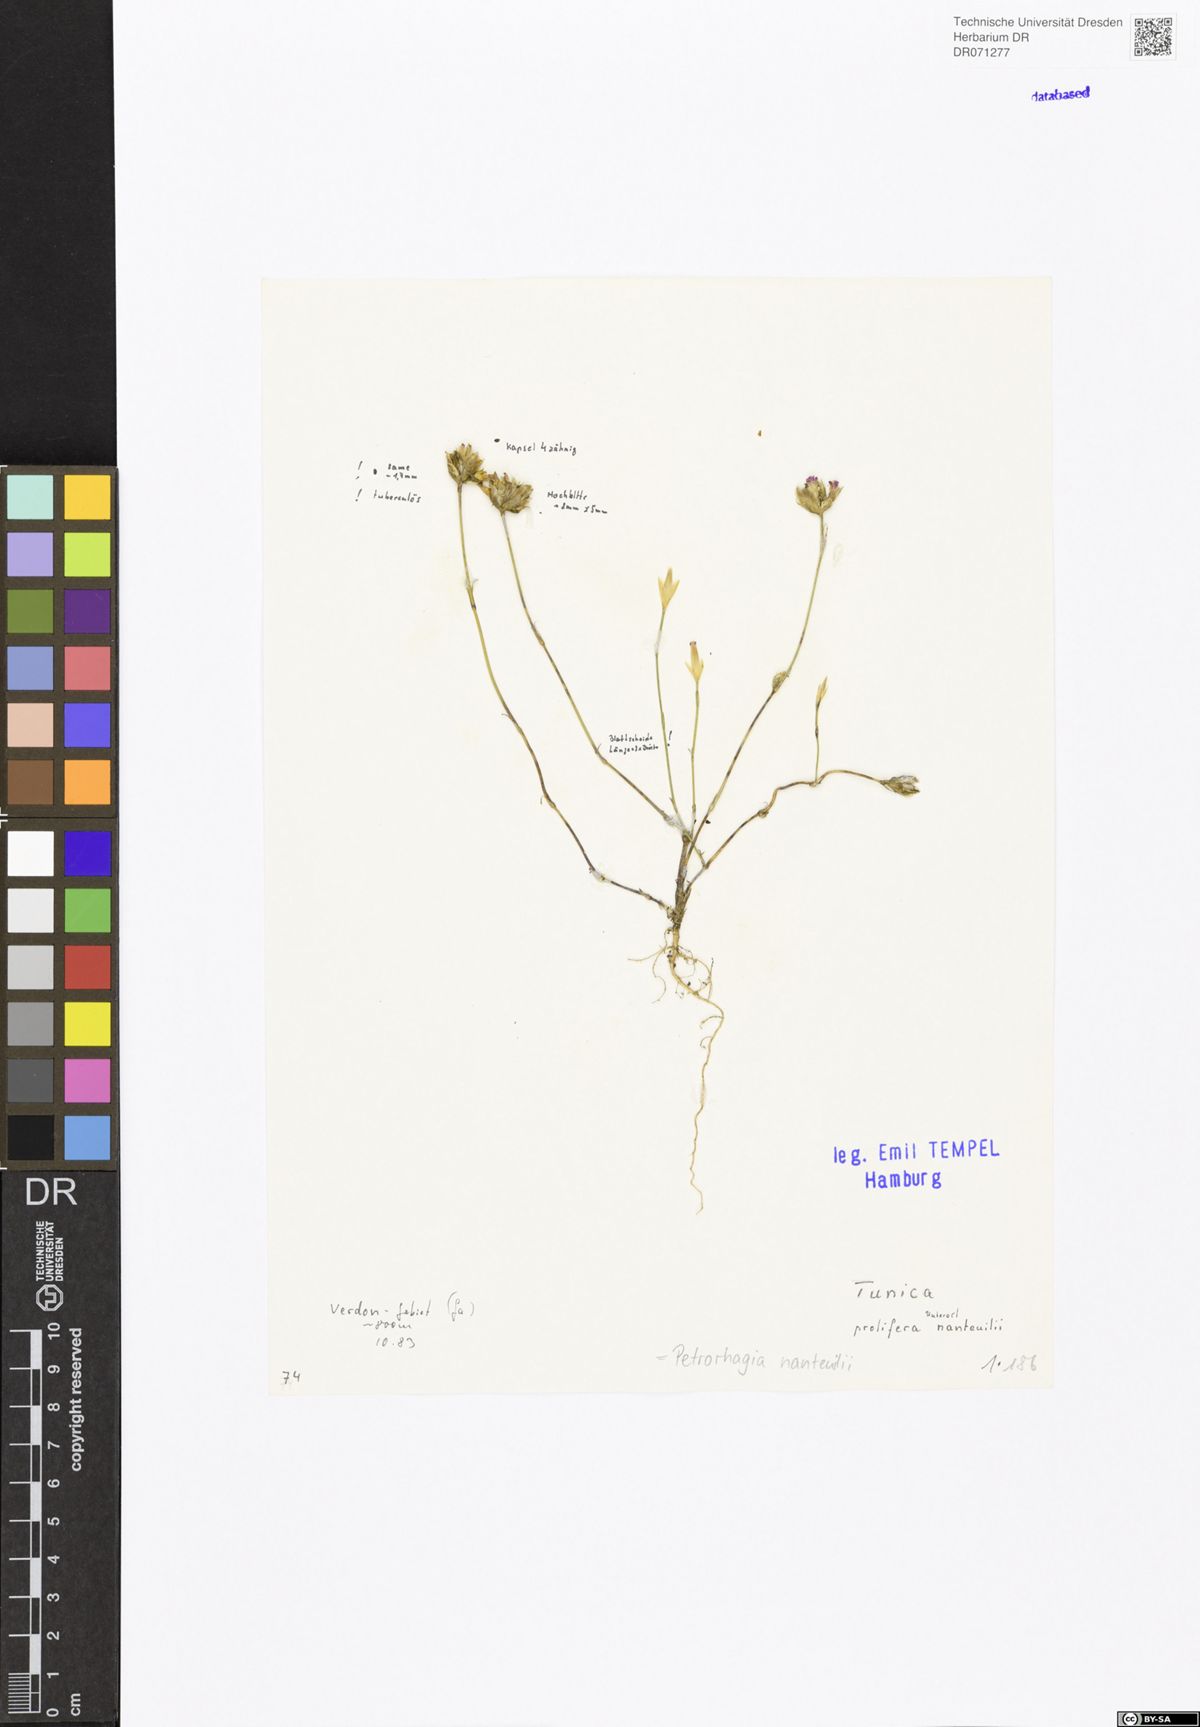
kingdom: Plantae
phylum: Tracheophyta
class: Magnoliopsida
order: Caryophyllales
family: Caryophyllaceae
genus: Petrorhagia
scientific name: Petrorhagia nanteuilii
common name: Proliferous pink
